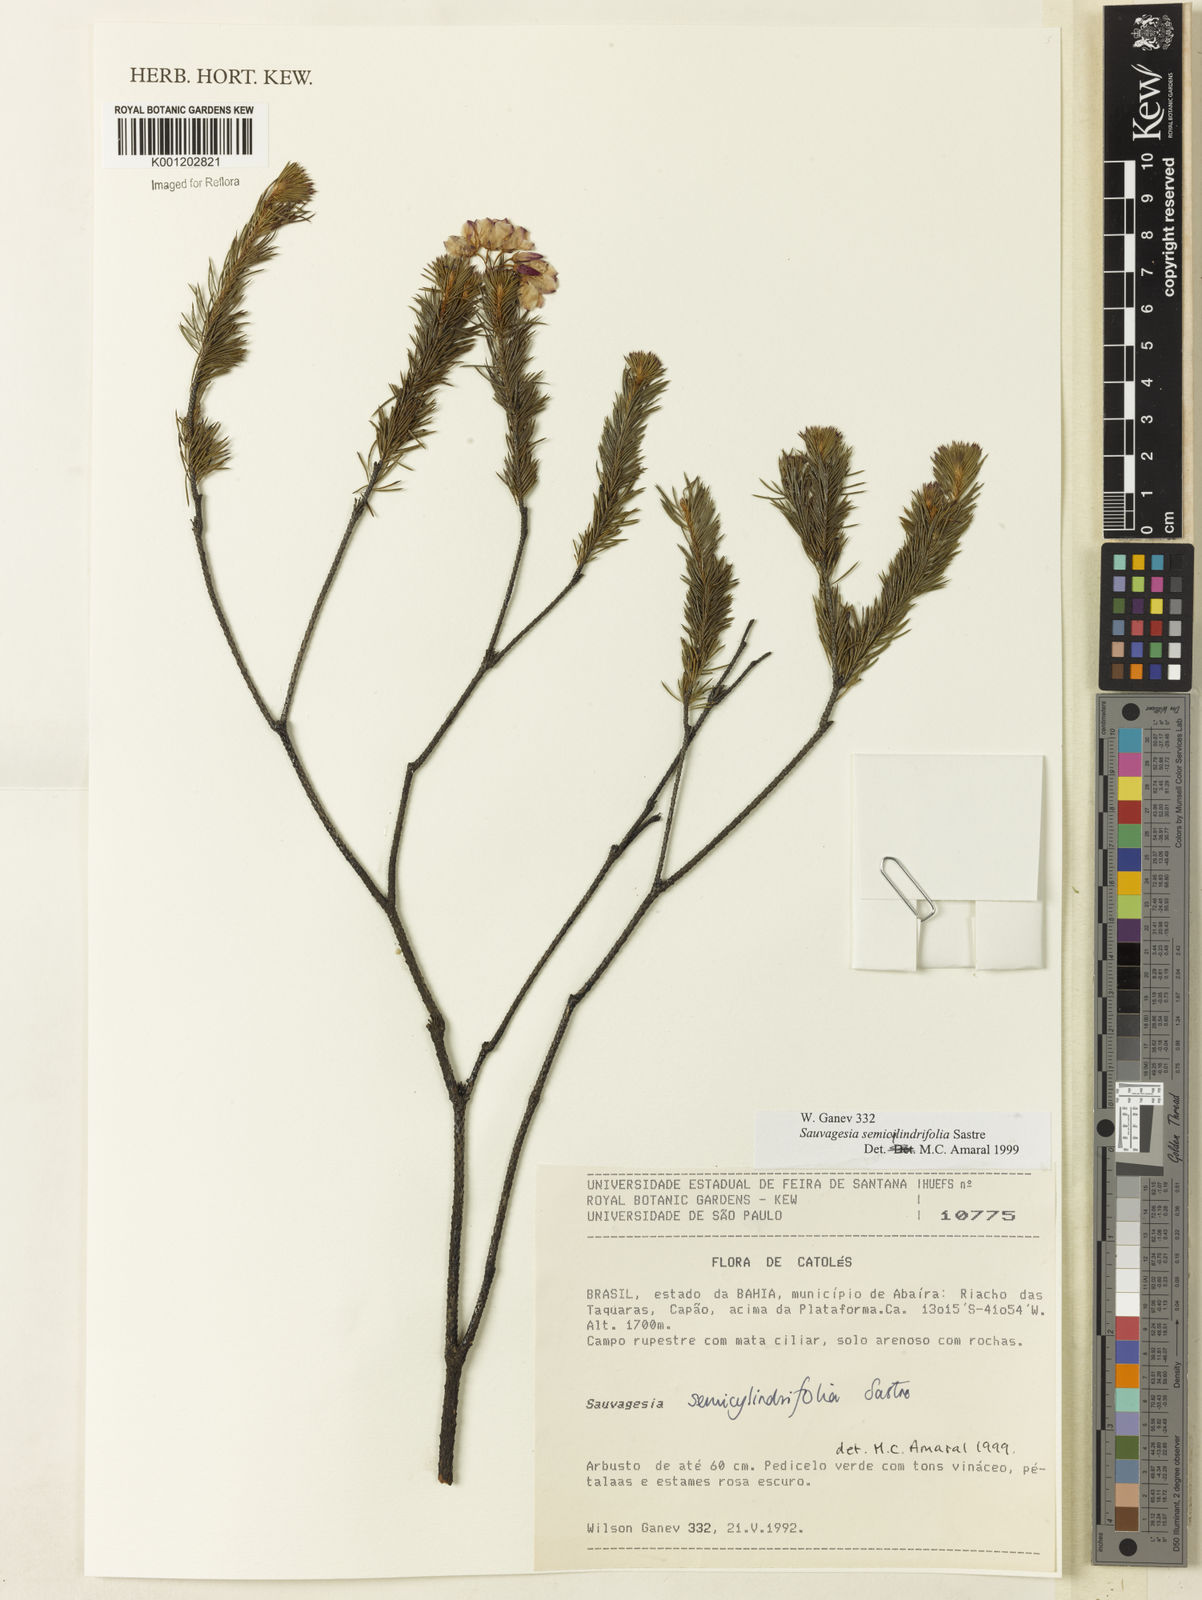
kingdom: Plantae
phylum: Tracheophyta
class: Magnoliopsida
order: Malpighiales
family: Ochnaceae
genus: Sauvagesia
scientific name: Sauvagesia semicylindrifolia
